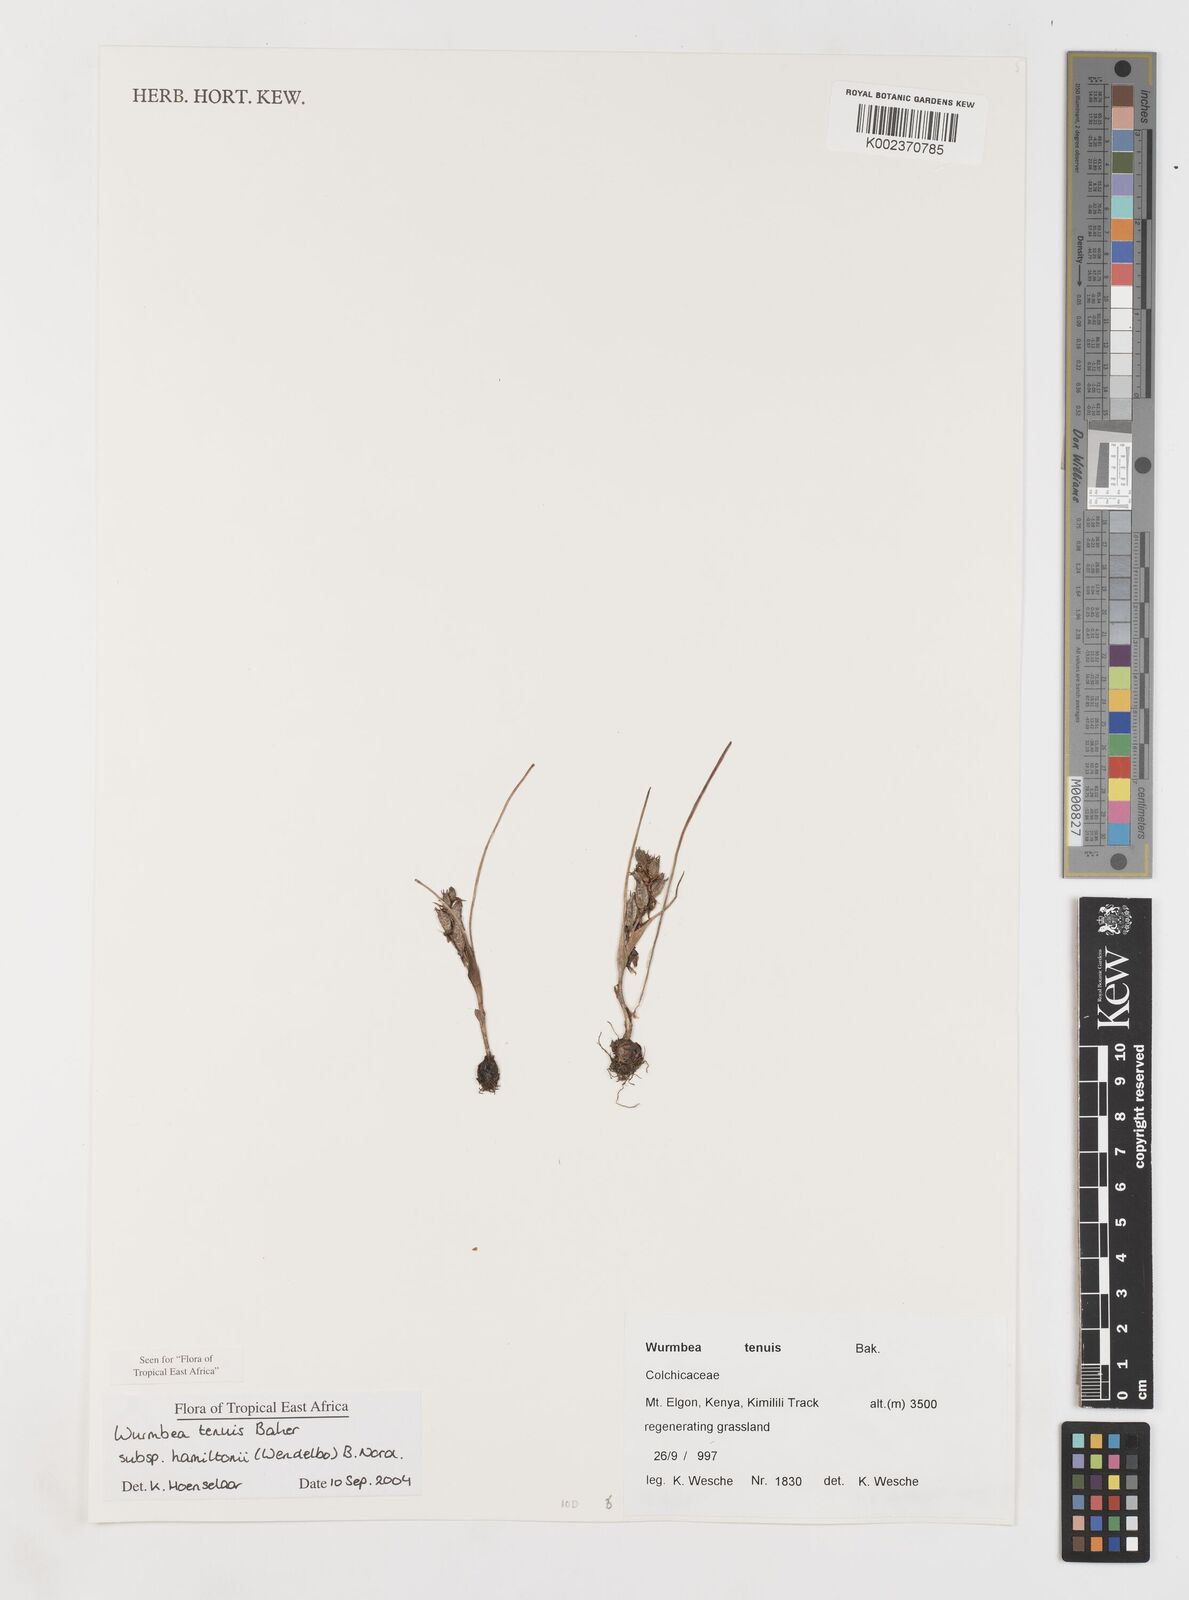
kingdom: Plantae
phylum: Tracheophyta
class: Liliopsida
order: Liliales
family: Colchicaceae
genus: Wurmbea
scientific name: Wurmbea tenuis
